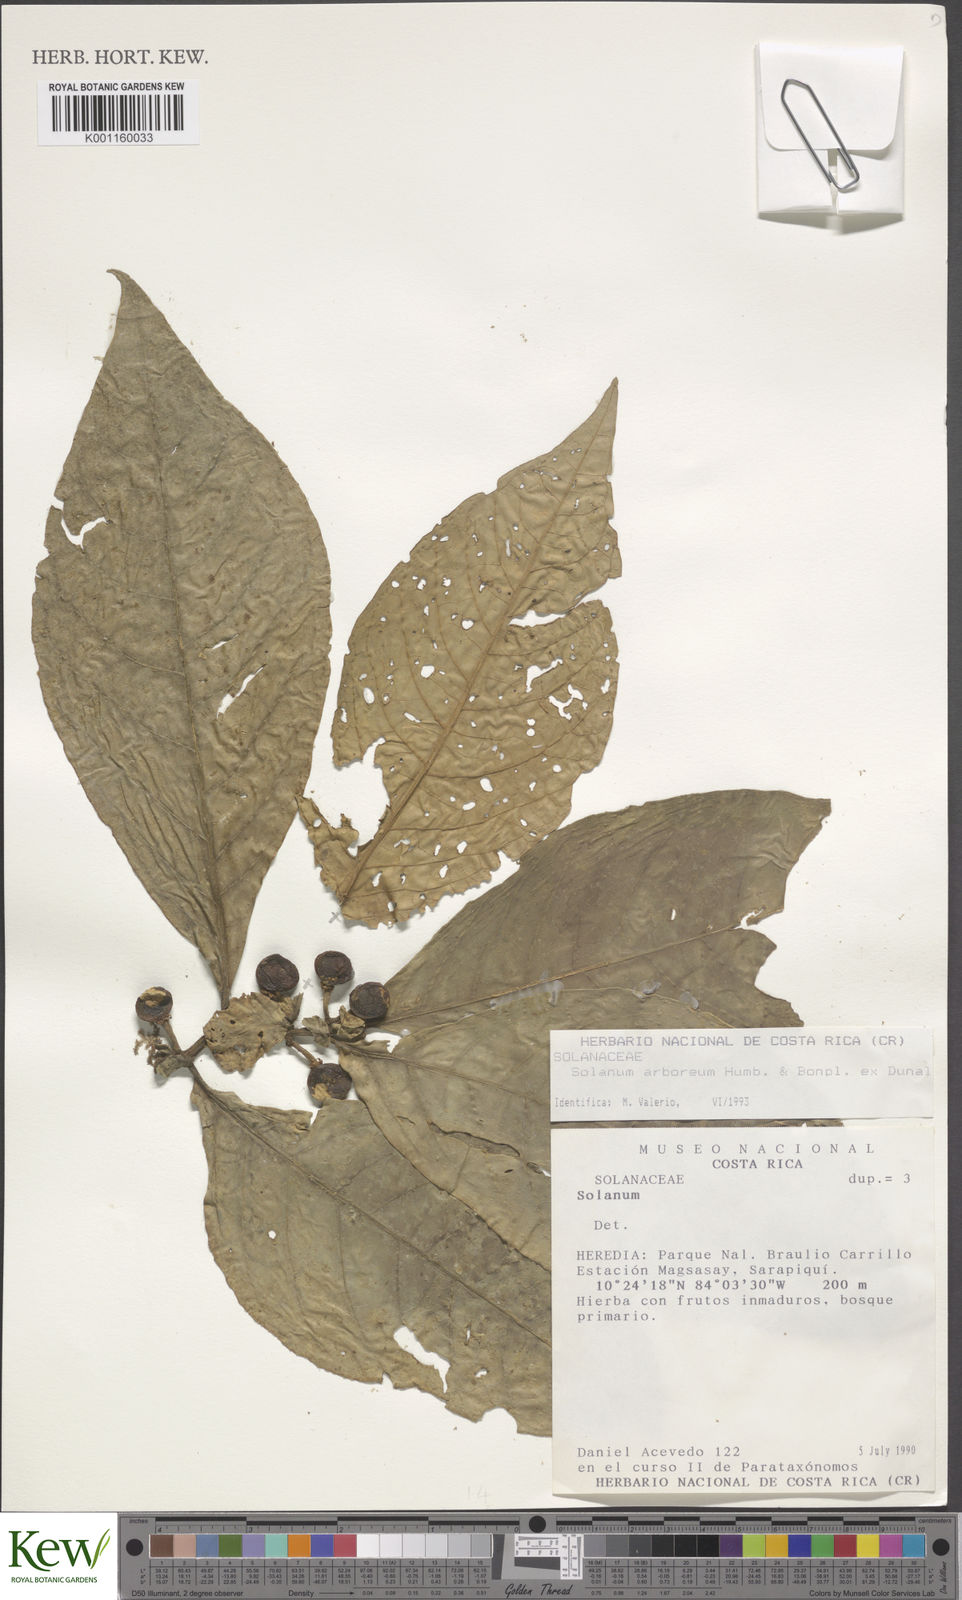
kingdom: Plantae
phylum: Tracheophyta
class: Magnoliopsida
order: Solanales
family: Solanaceae
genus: Solanum
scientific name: Solanum arboreum
